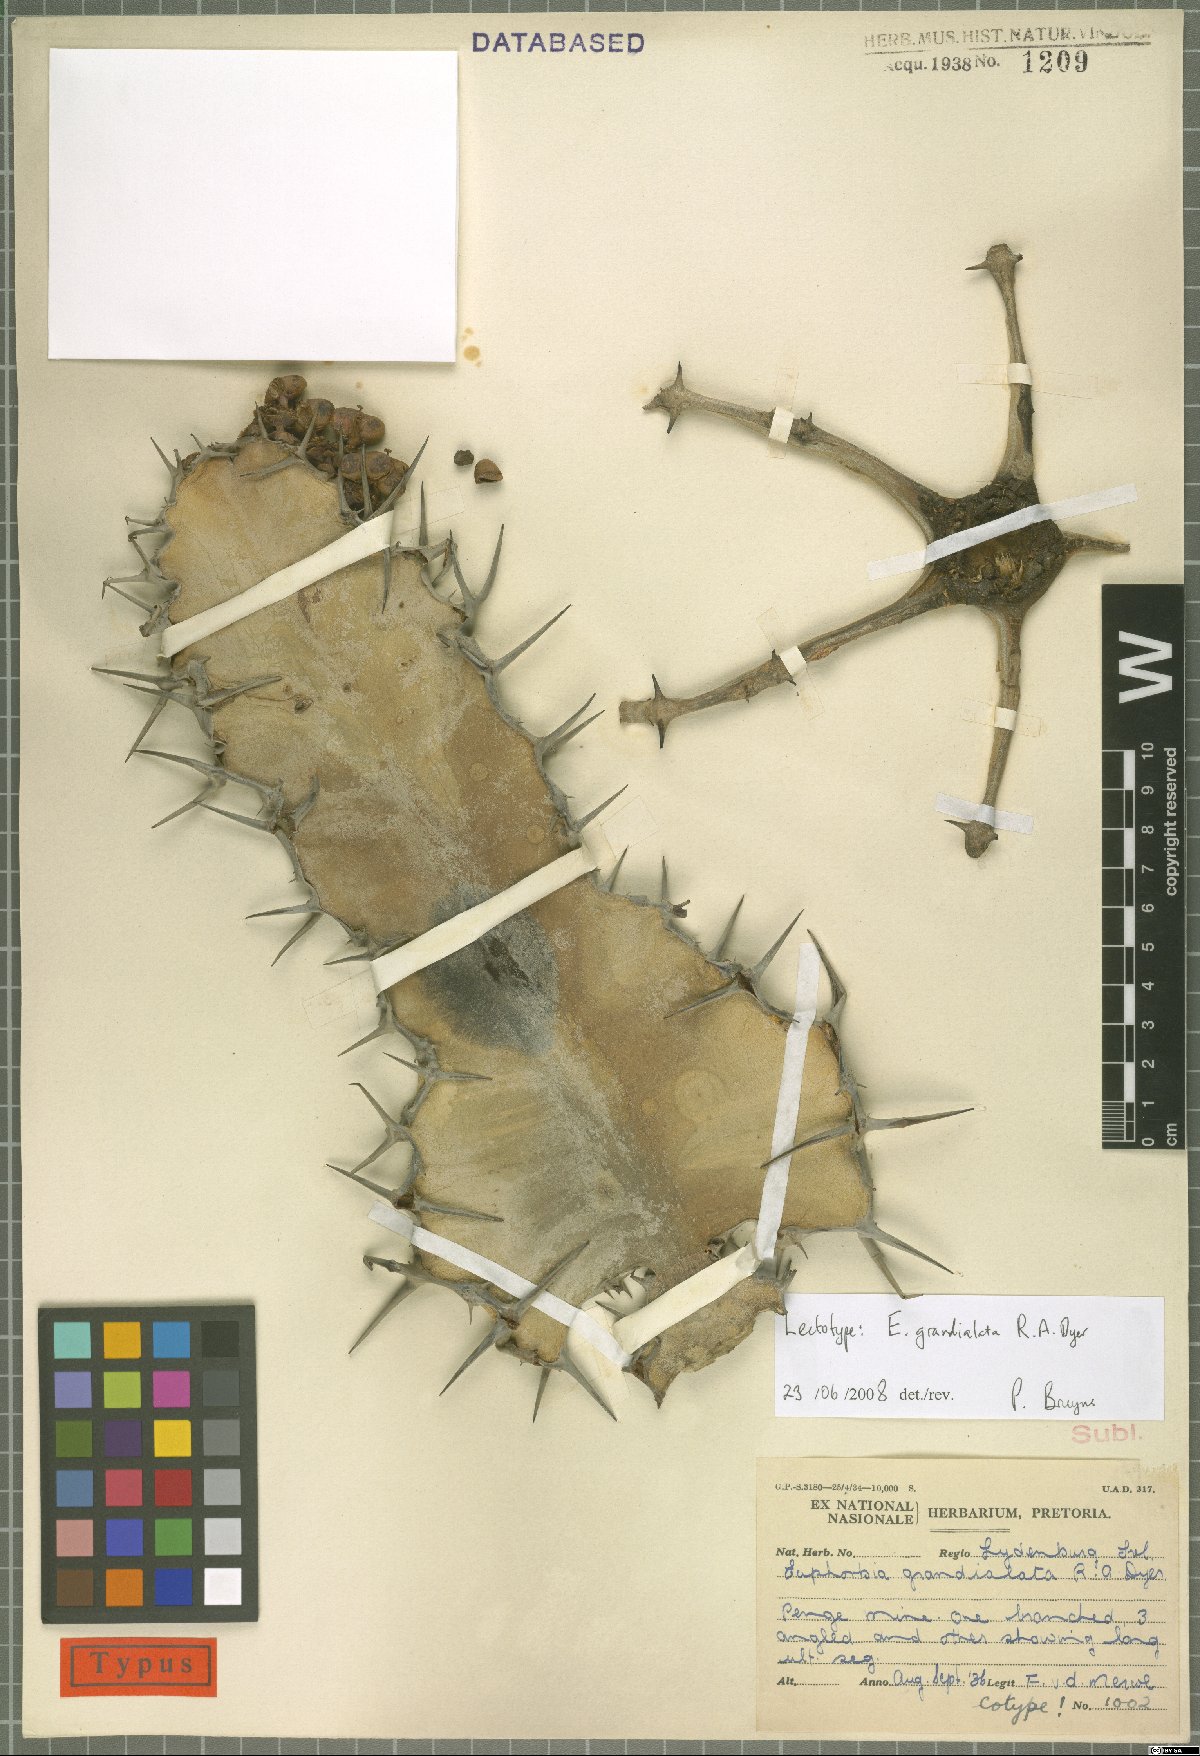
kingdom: Plantae
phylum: Tracheophyta
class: Magnoliopsida
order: Malpighiales
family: Euphorbiaceae
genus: Euphorbia
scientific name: Euphorbia grandialata
